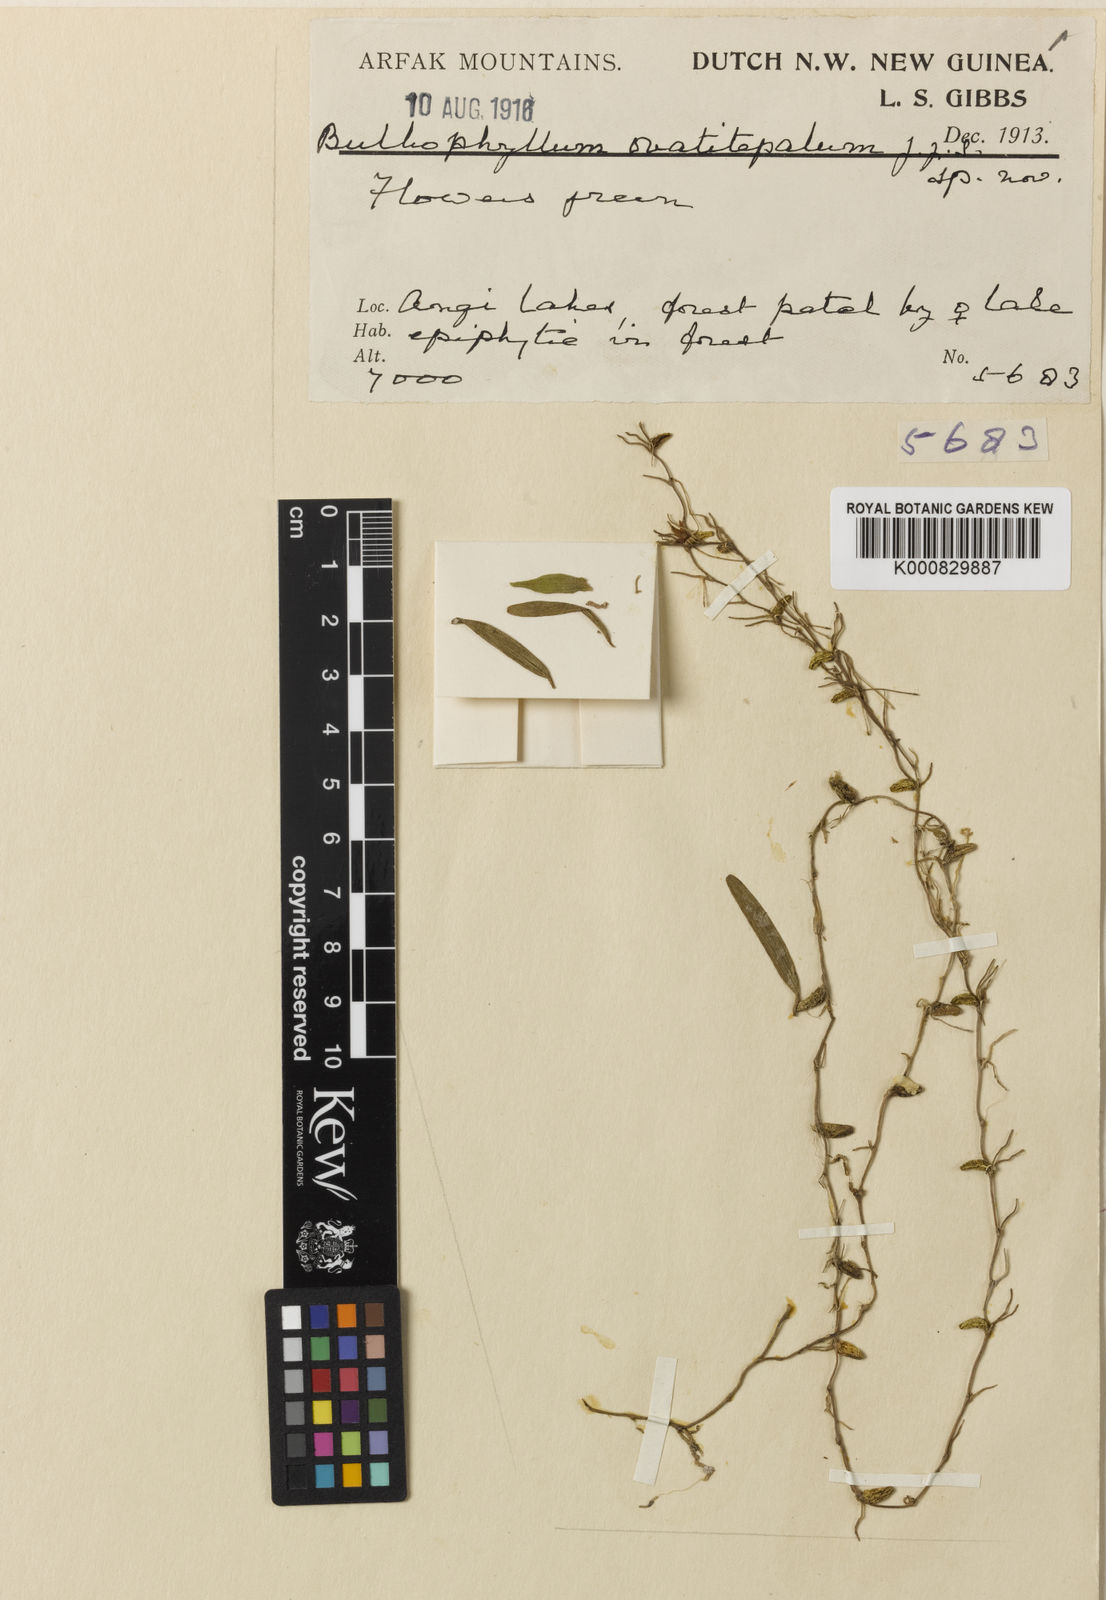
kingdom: Plantae
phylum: Tracheophyta
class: Liliopsida
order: Asparagales
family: Orchidaceae
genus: Bulbophyllum
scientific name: Bulbophyllum nematorhizis
